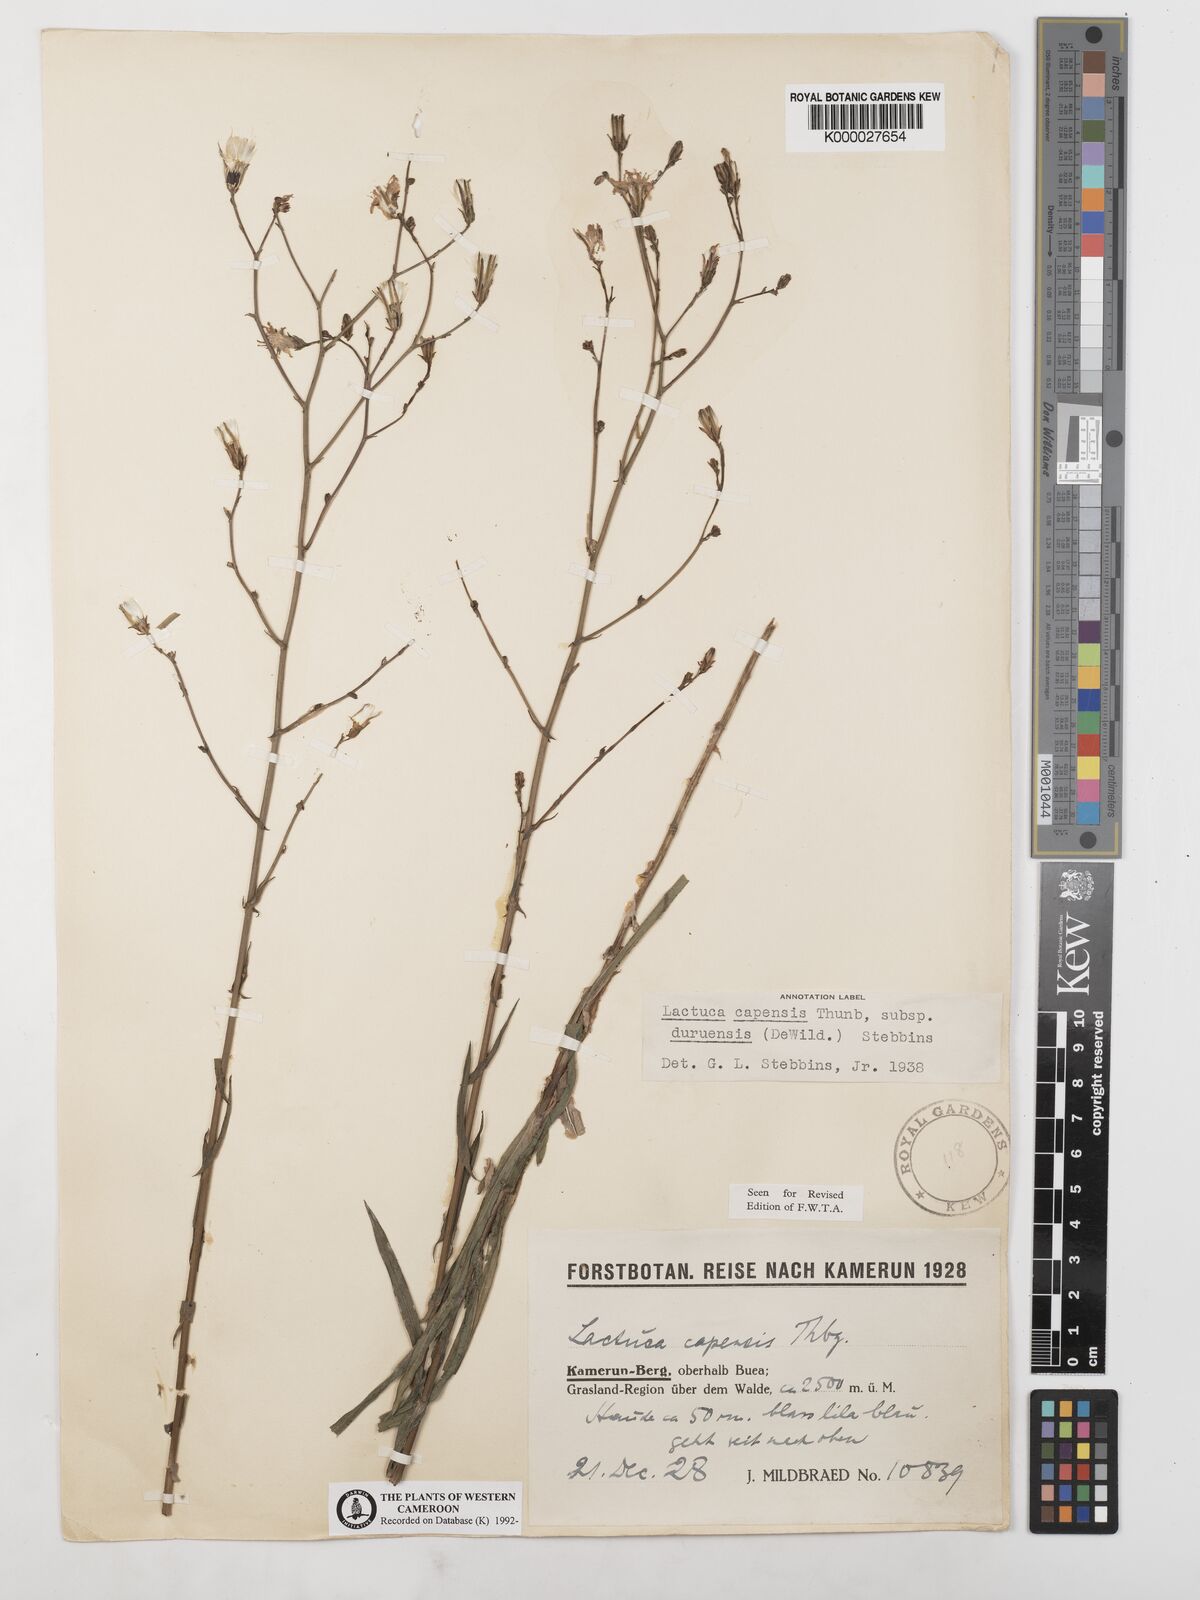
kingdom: Plantae
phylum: Tracheophyta
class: Magnoliopsida
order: Asterales
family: Asteraceae
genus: Lactuca
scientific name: Lactuca inermis
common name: Wild lettuce
